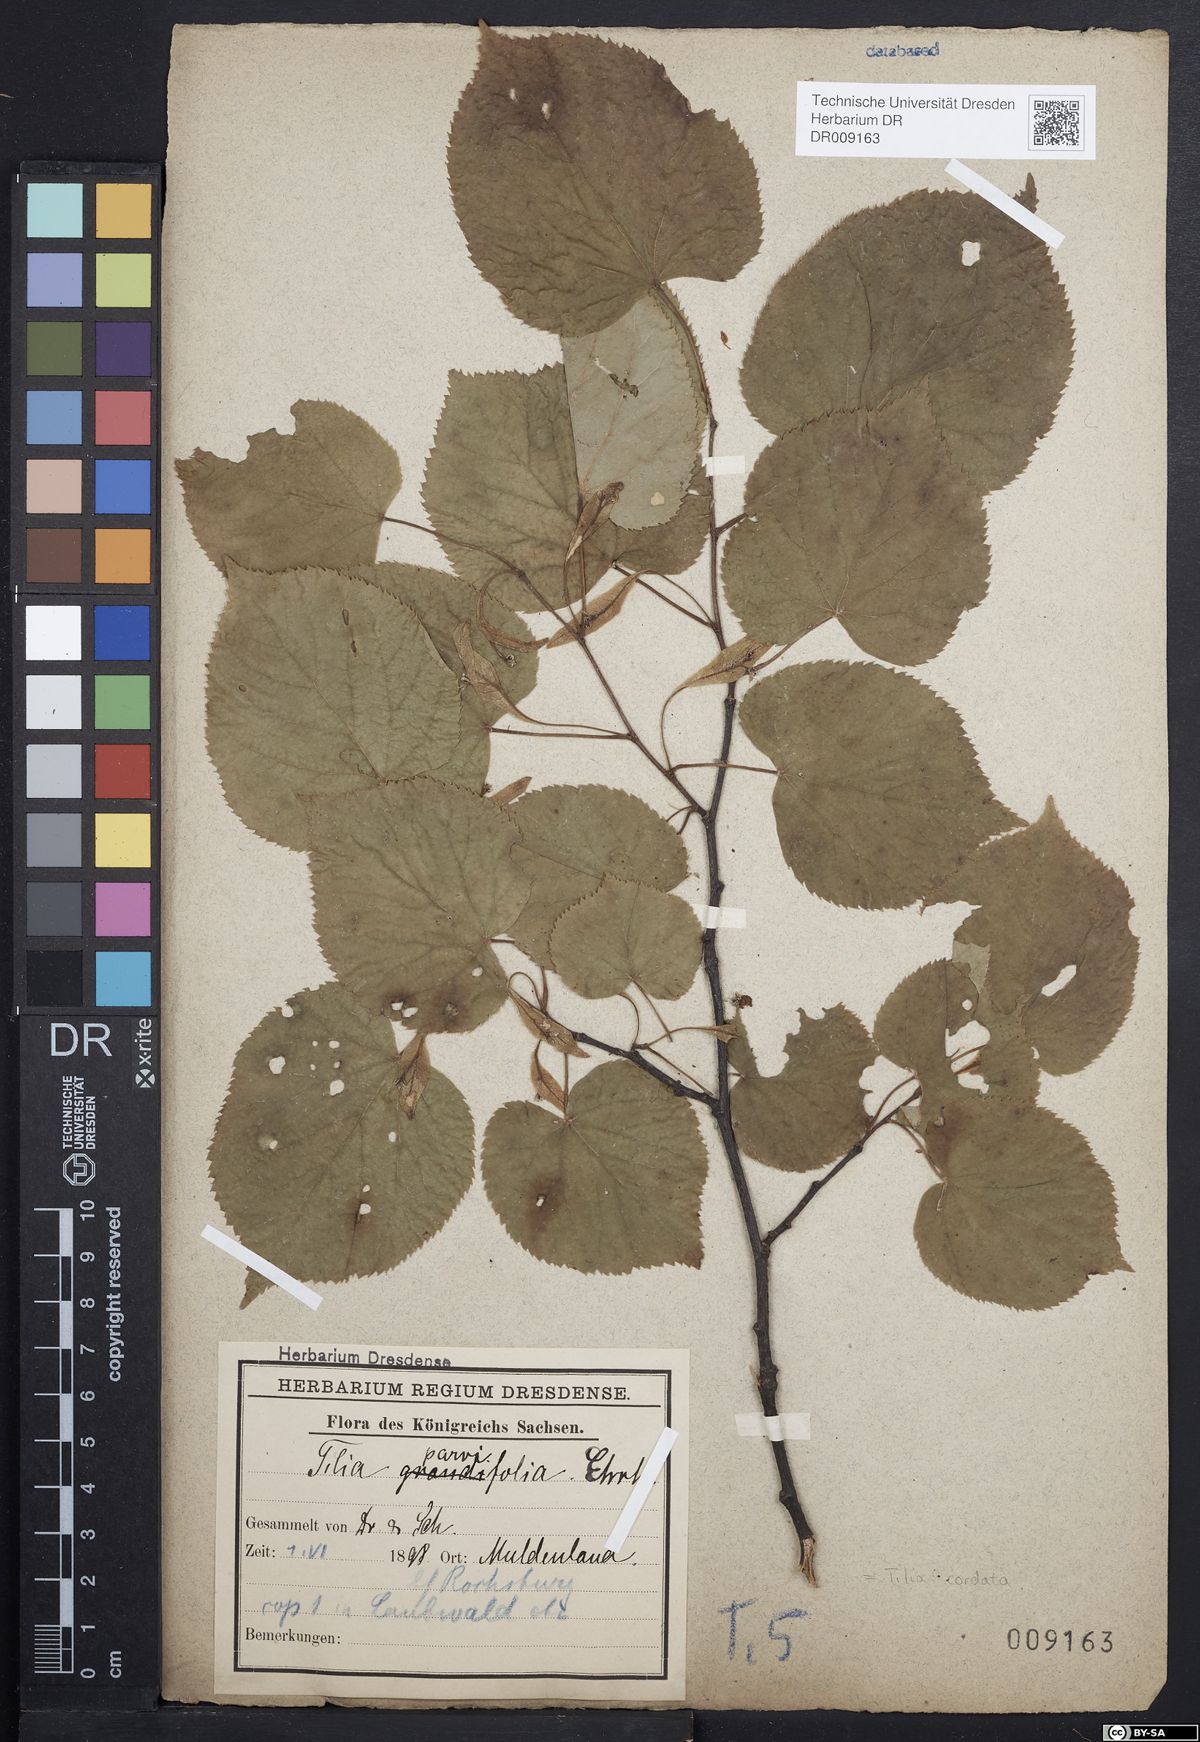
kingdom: Plantae
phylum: Tracheophyta
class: Magnoliopsida
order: Malvales
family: Malvaceae
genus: Tilia
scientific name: Tilia cordata
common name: Small-leaved lime
